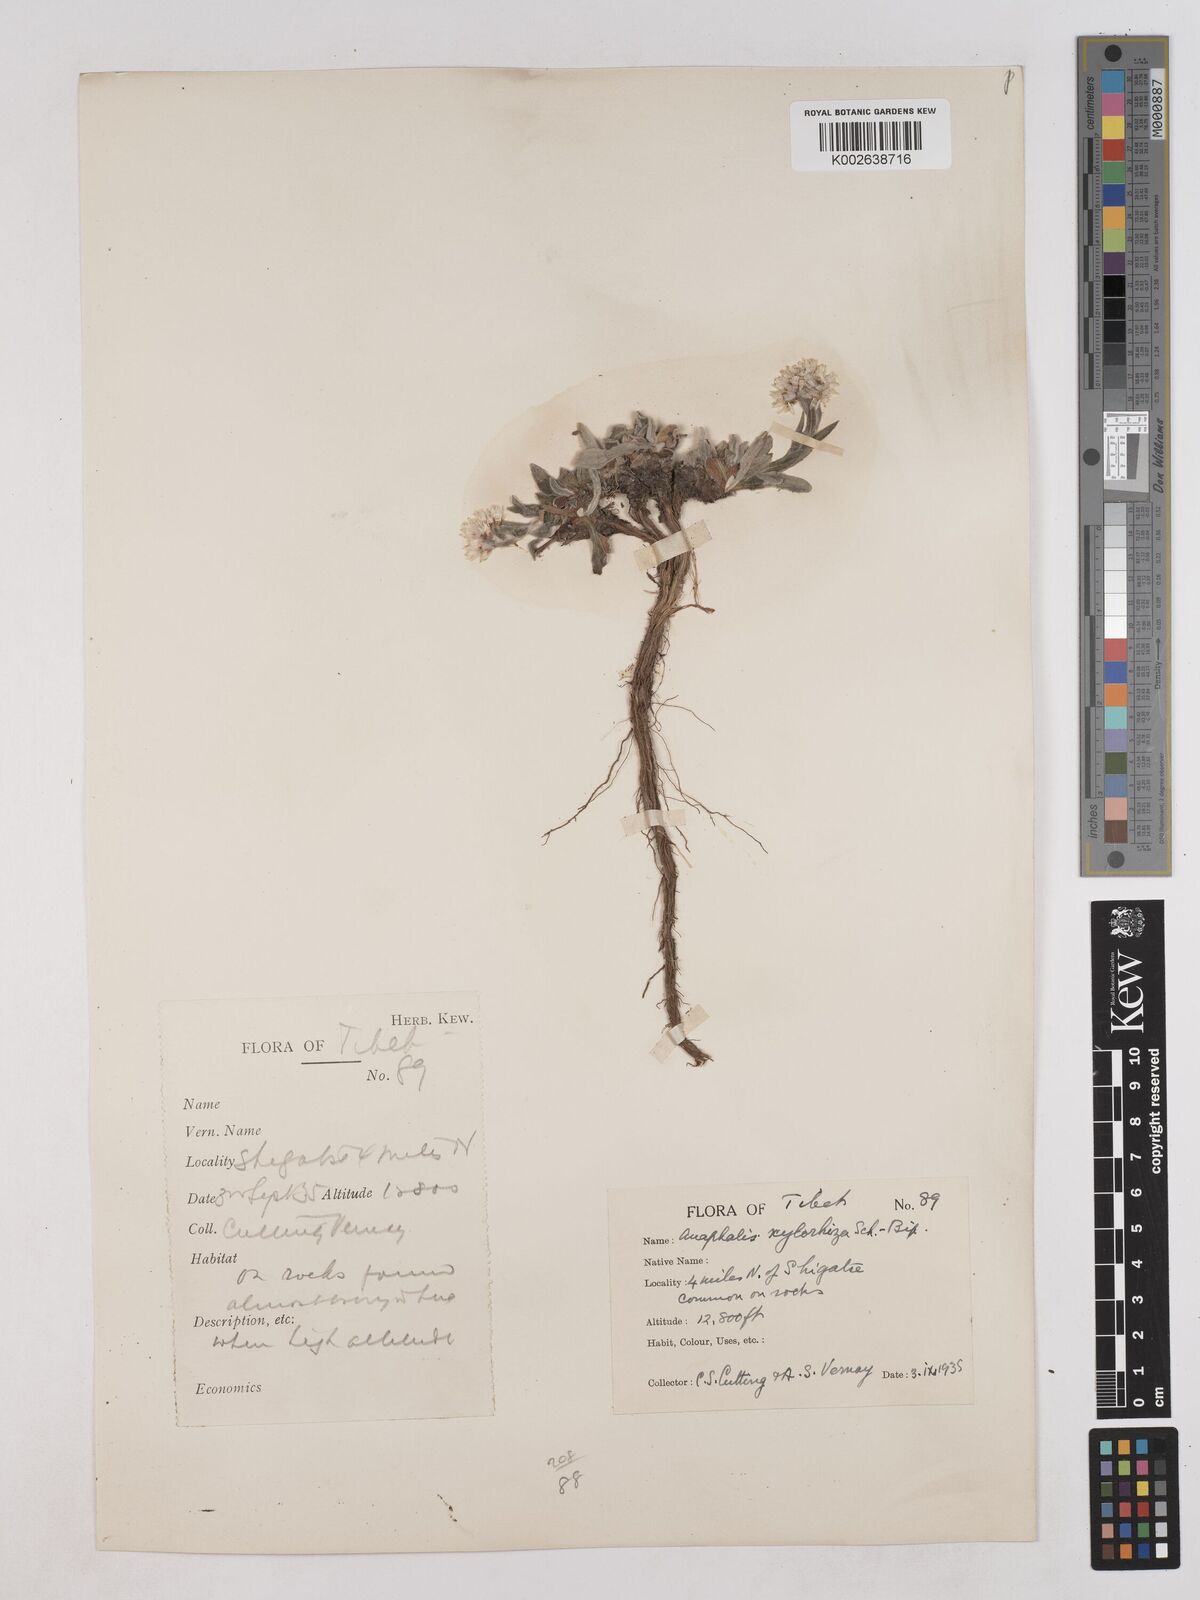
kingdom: Plantae
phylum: Tracheophyta
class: Magnoliopsida
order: Asterales
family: Asteraceae
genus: Anaphalis
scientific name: Anaphalis xylorhiza
